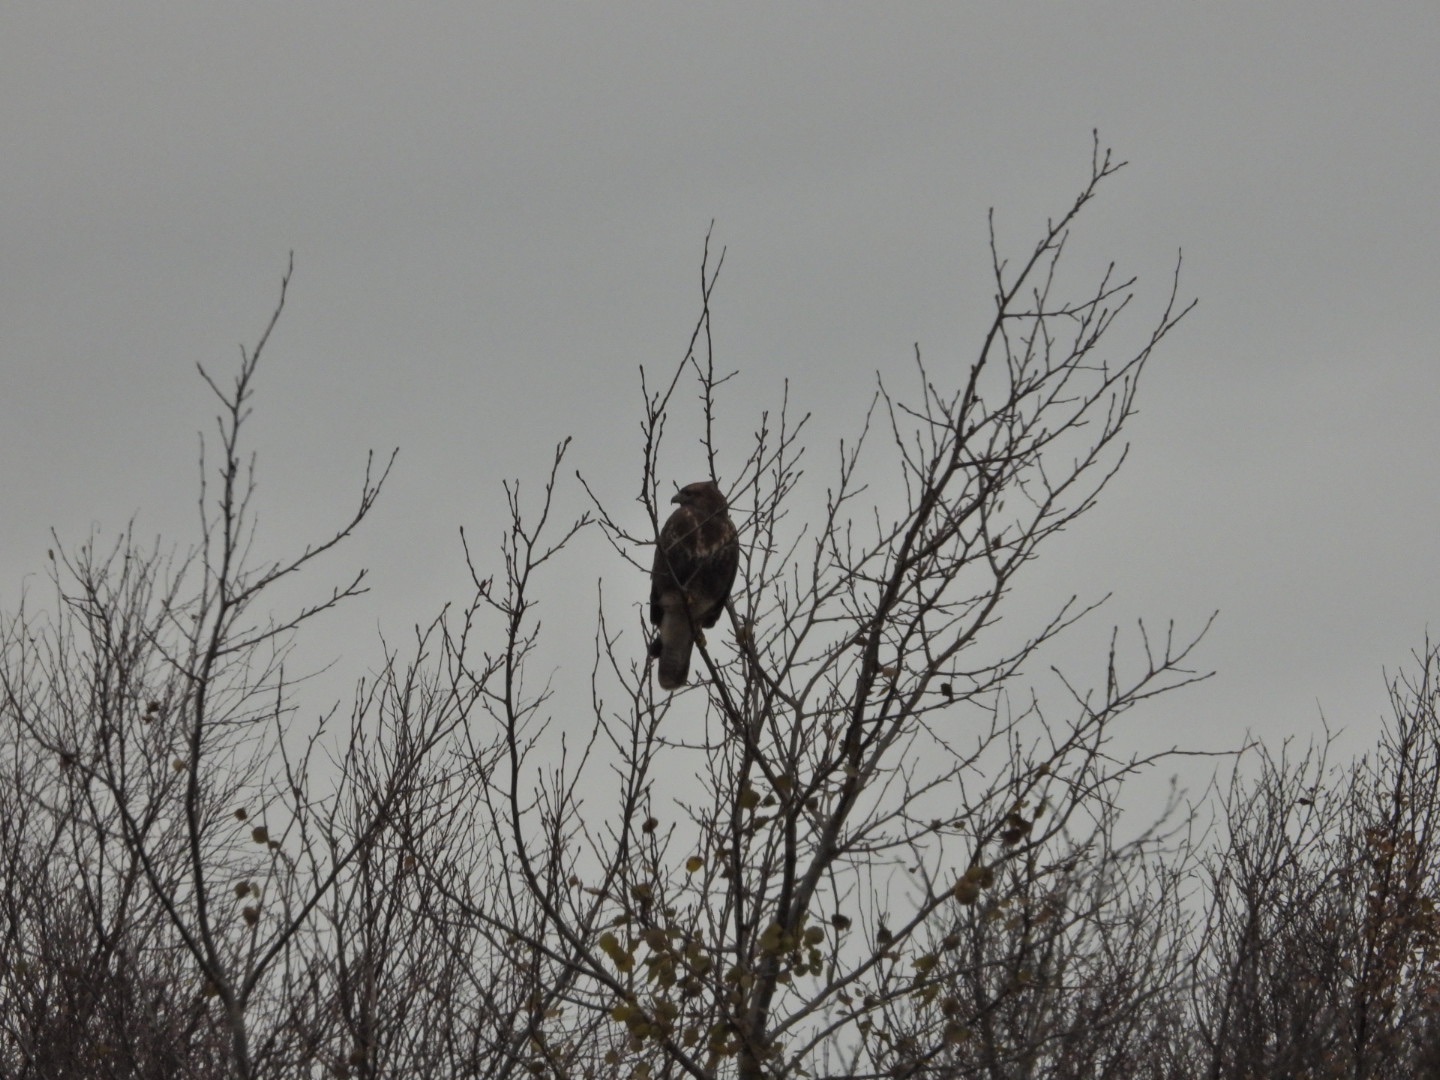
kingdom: Animalia
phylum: Chordata
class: Aves
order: Accipitriformes
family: Accipitridae
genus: Buteo
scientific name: Buteo buteo
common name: Musvåge
